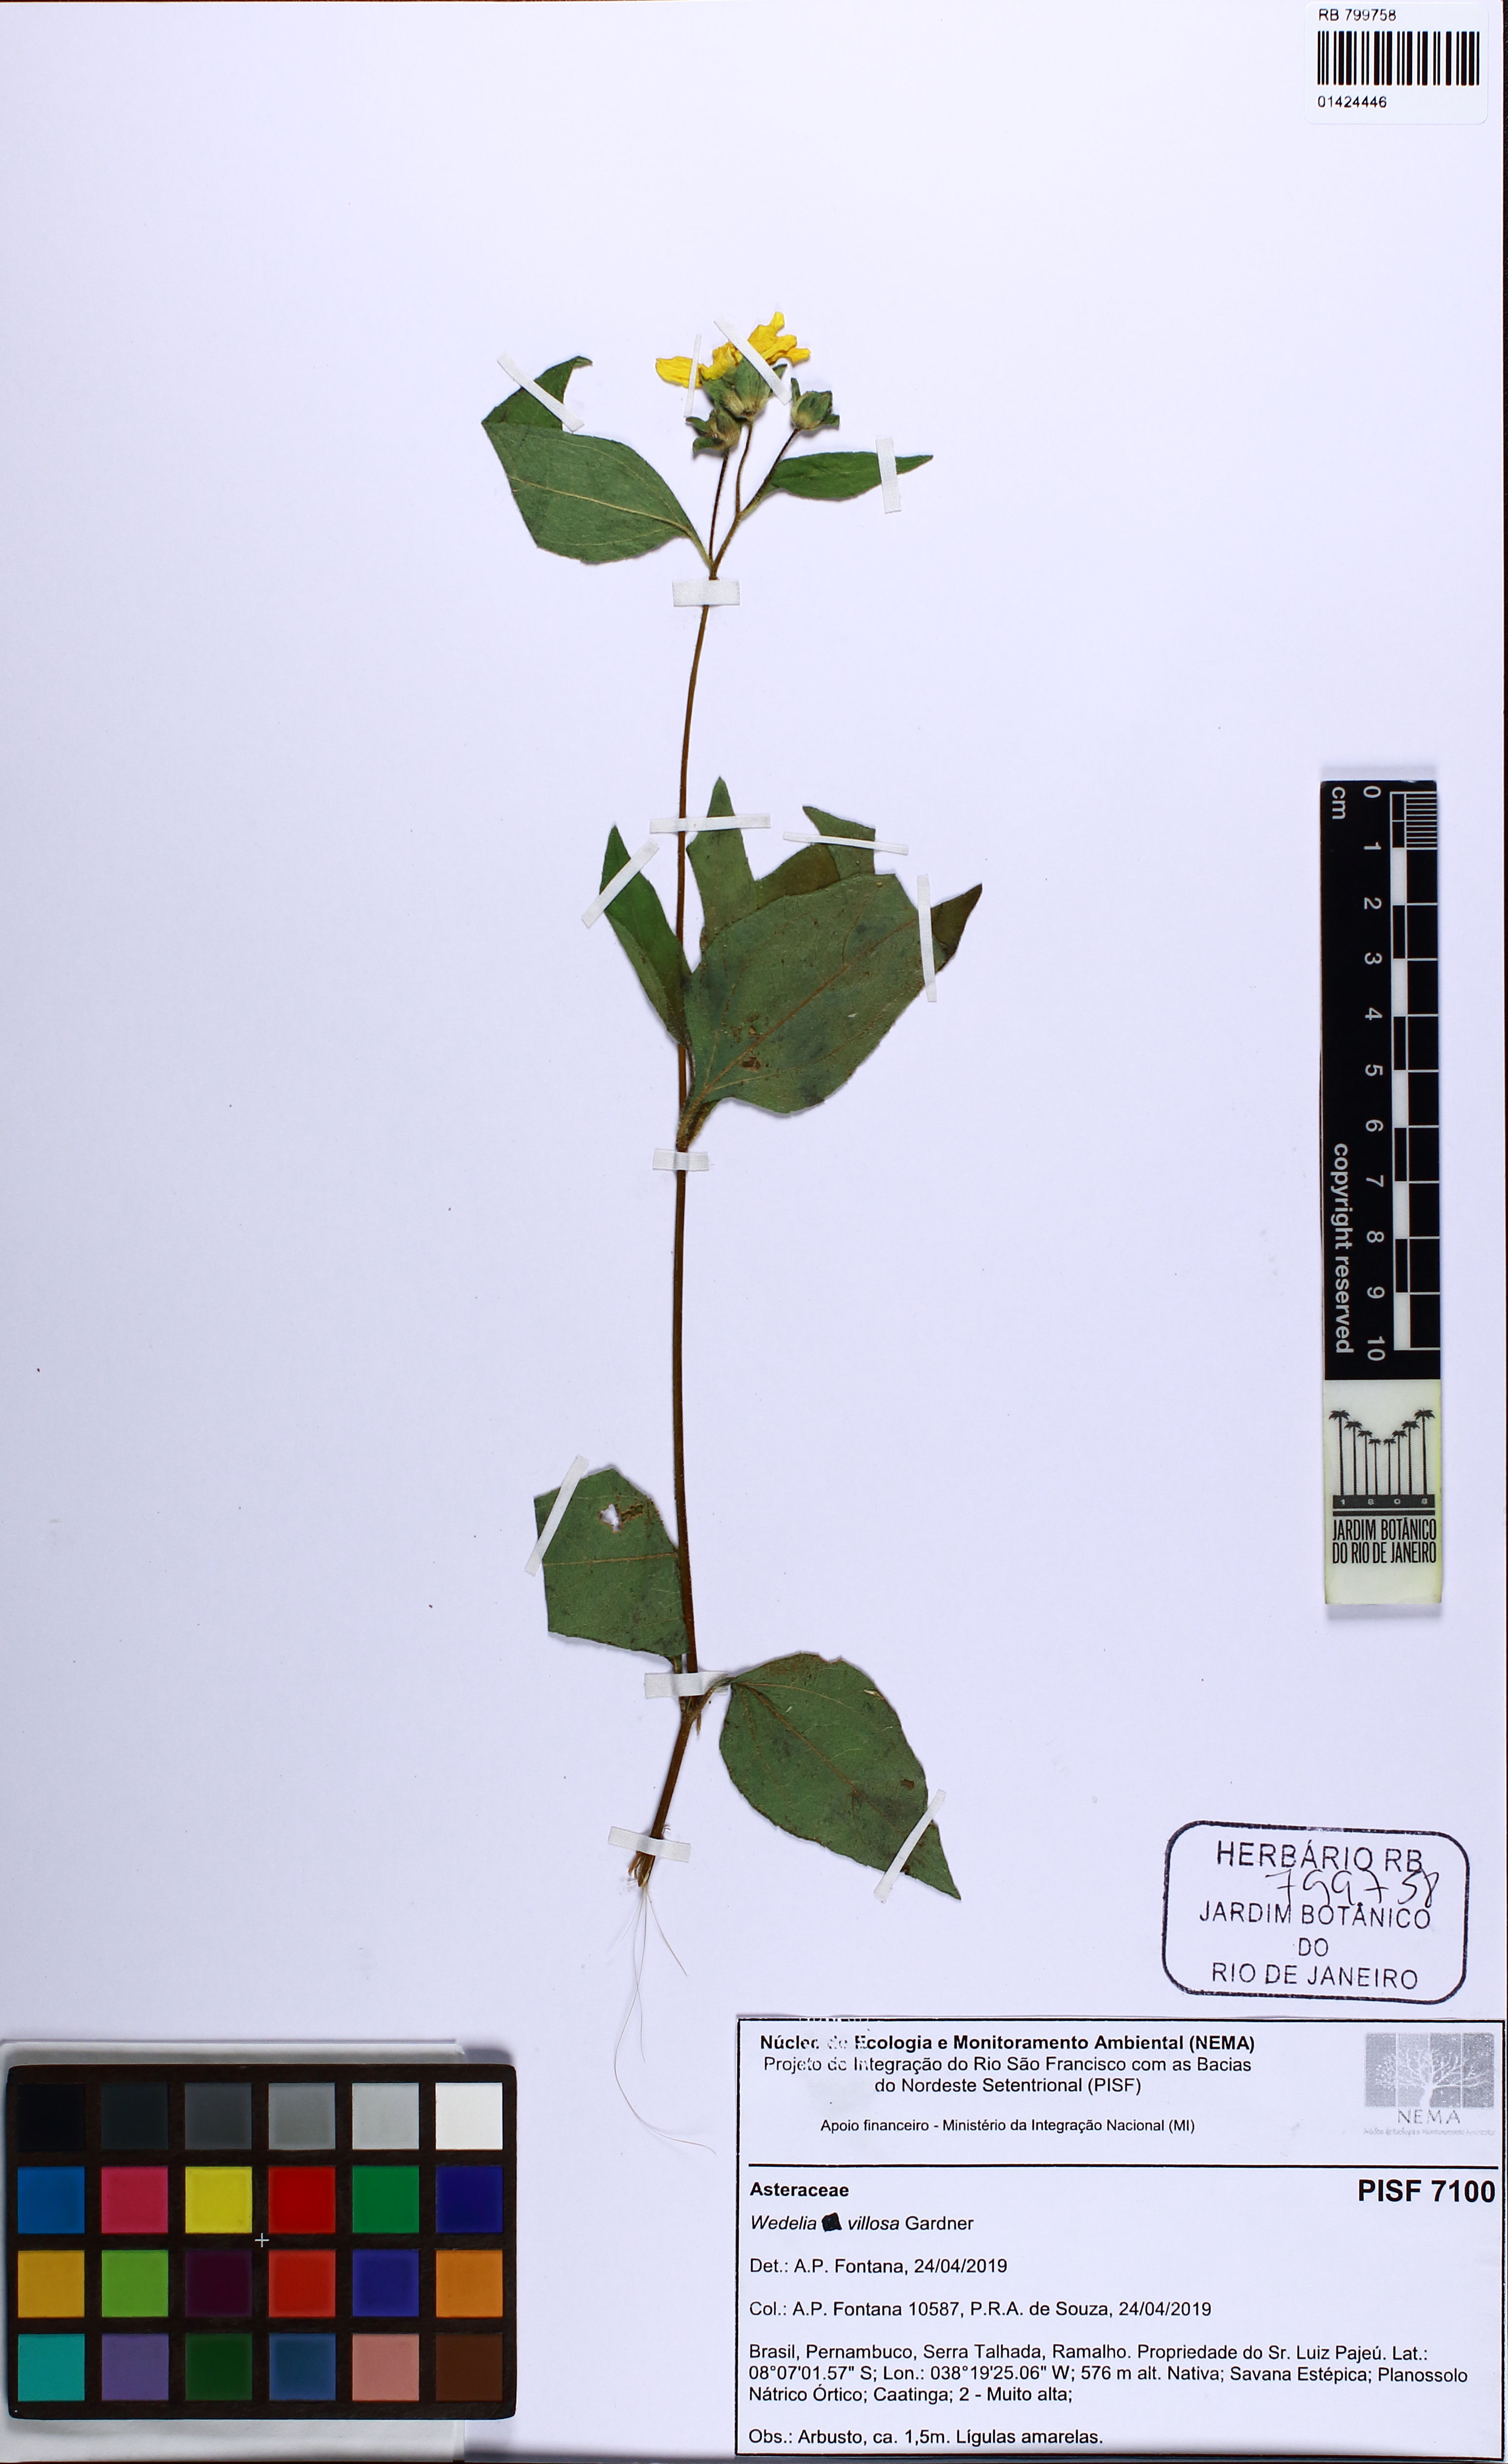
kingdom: Plantae
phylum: Tracheophyta
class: Magnoliopsida
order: Asterales
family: Asteraceae
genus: Wedelia
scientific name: Wedelia villosa
